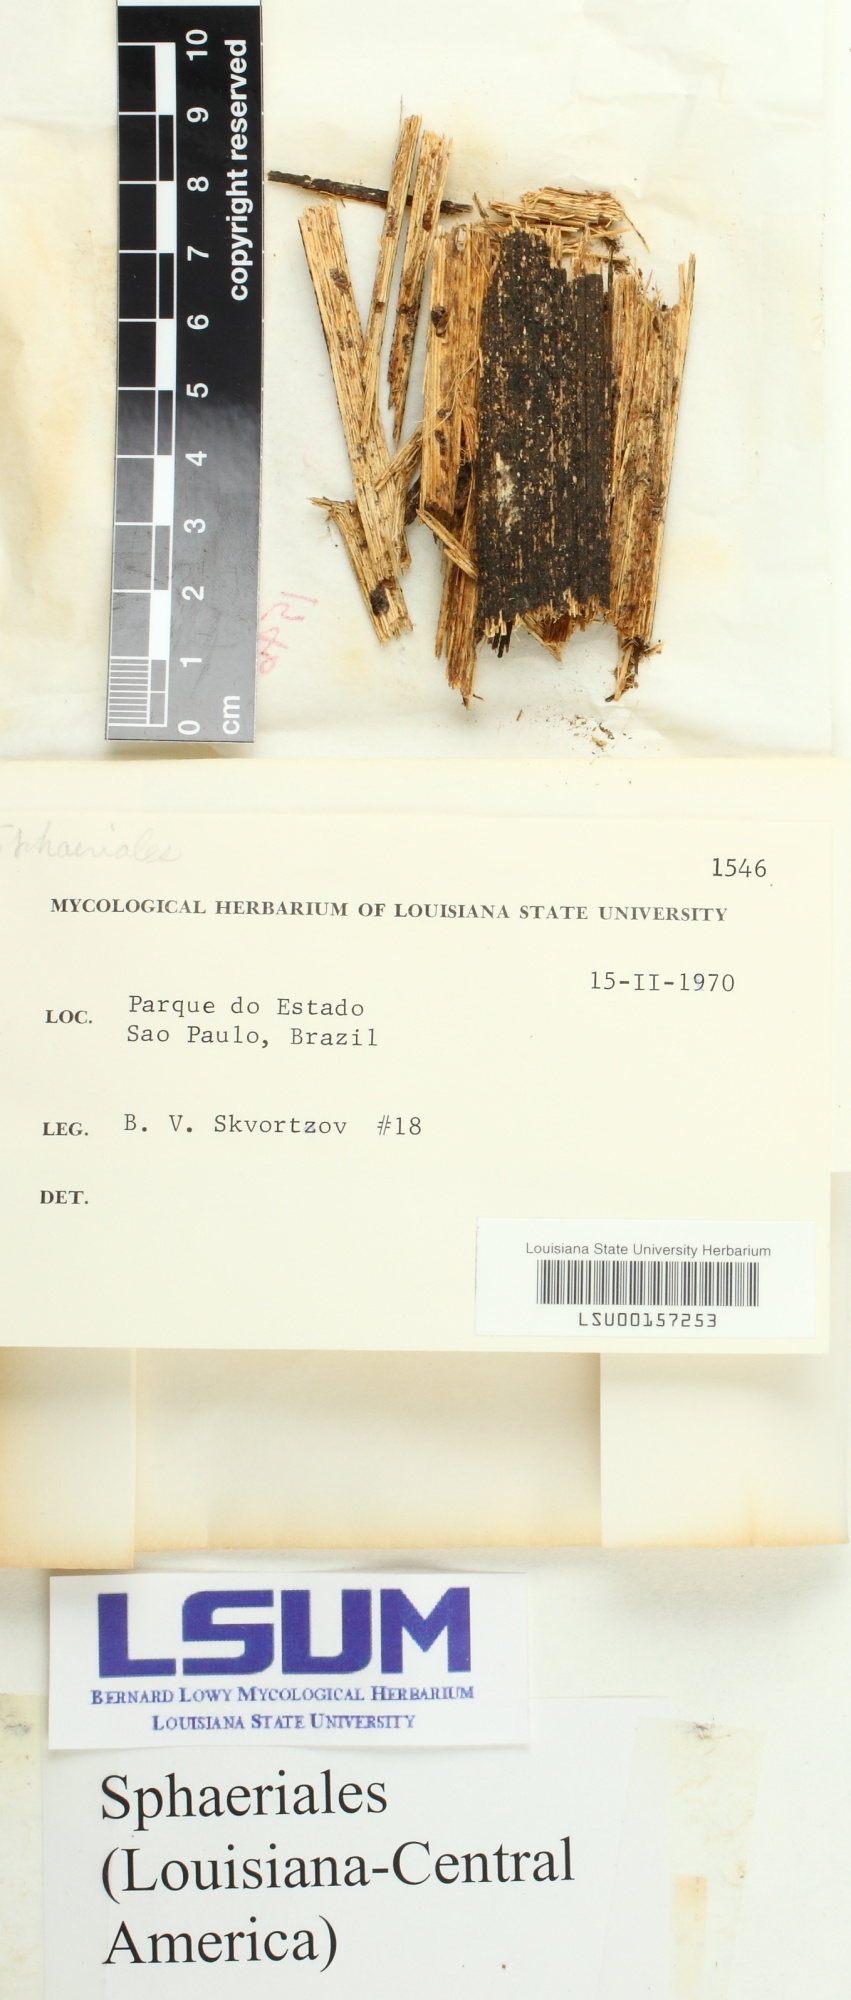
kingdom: Fungi
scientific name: Fungi
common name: Fungi
